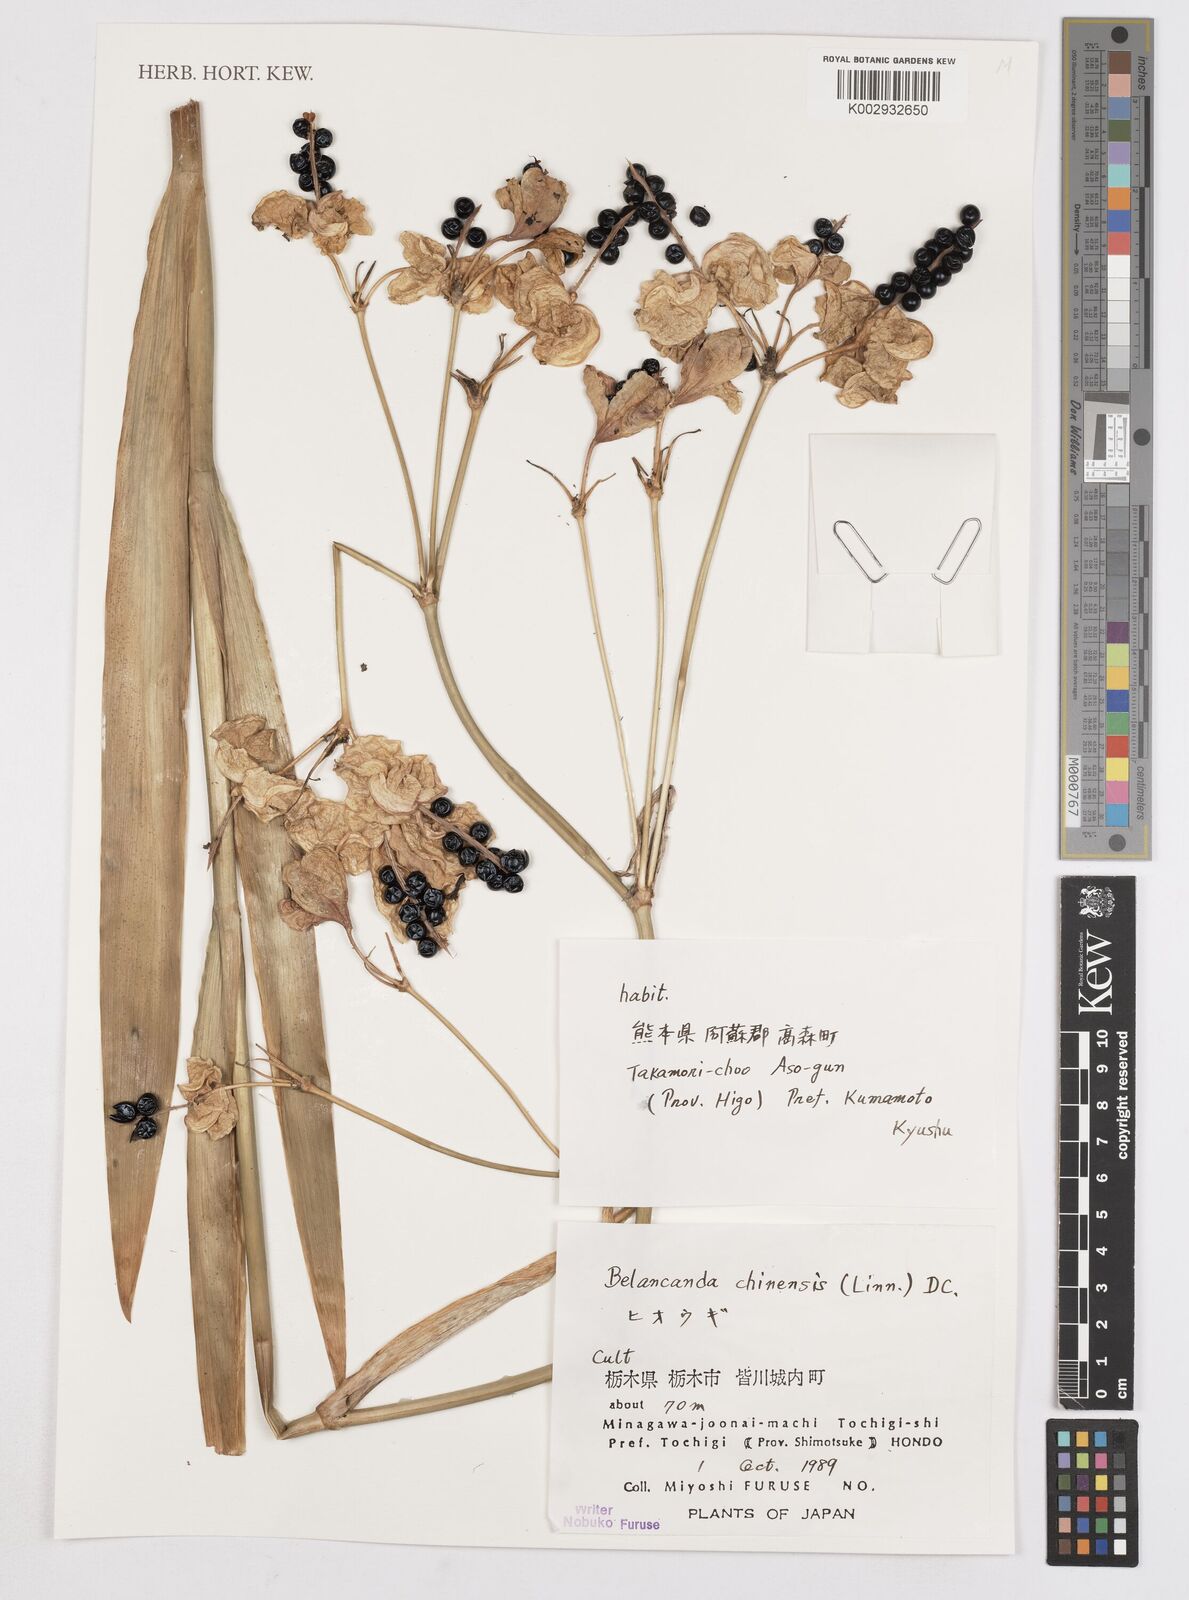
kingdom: Plantae
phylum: Tracheophyta
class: Liliopsida
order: Asparagales
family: Iridaceae
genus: Iris
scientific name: Iris
